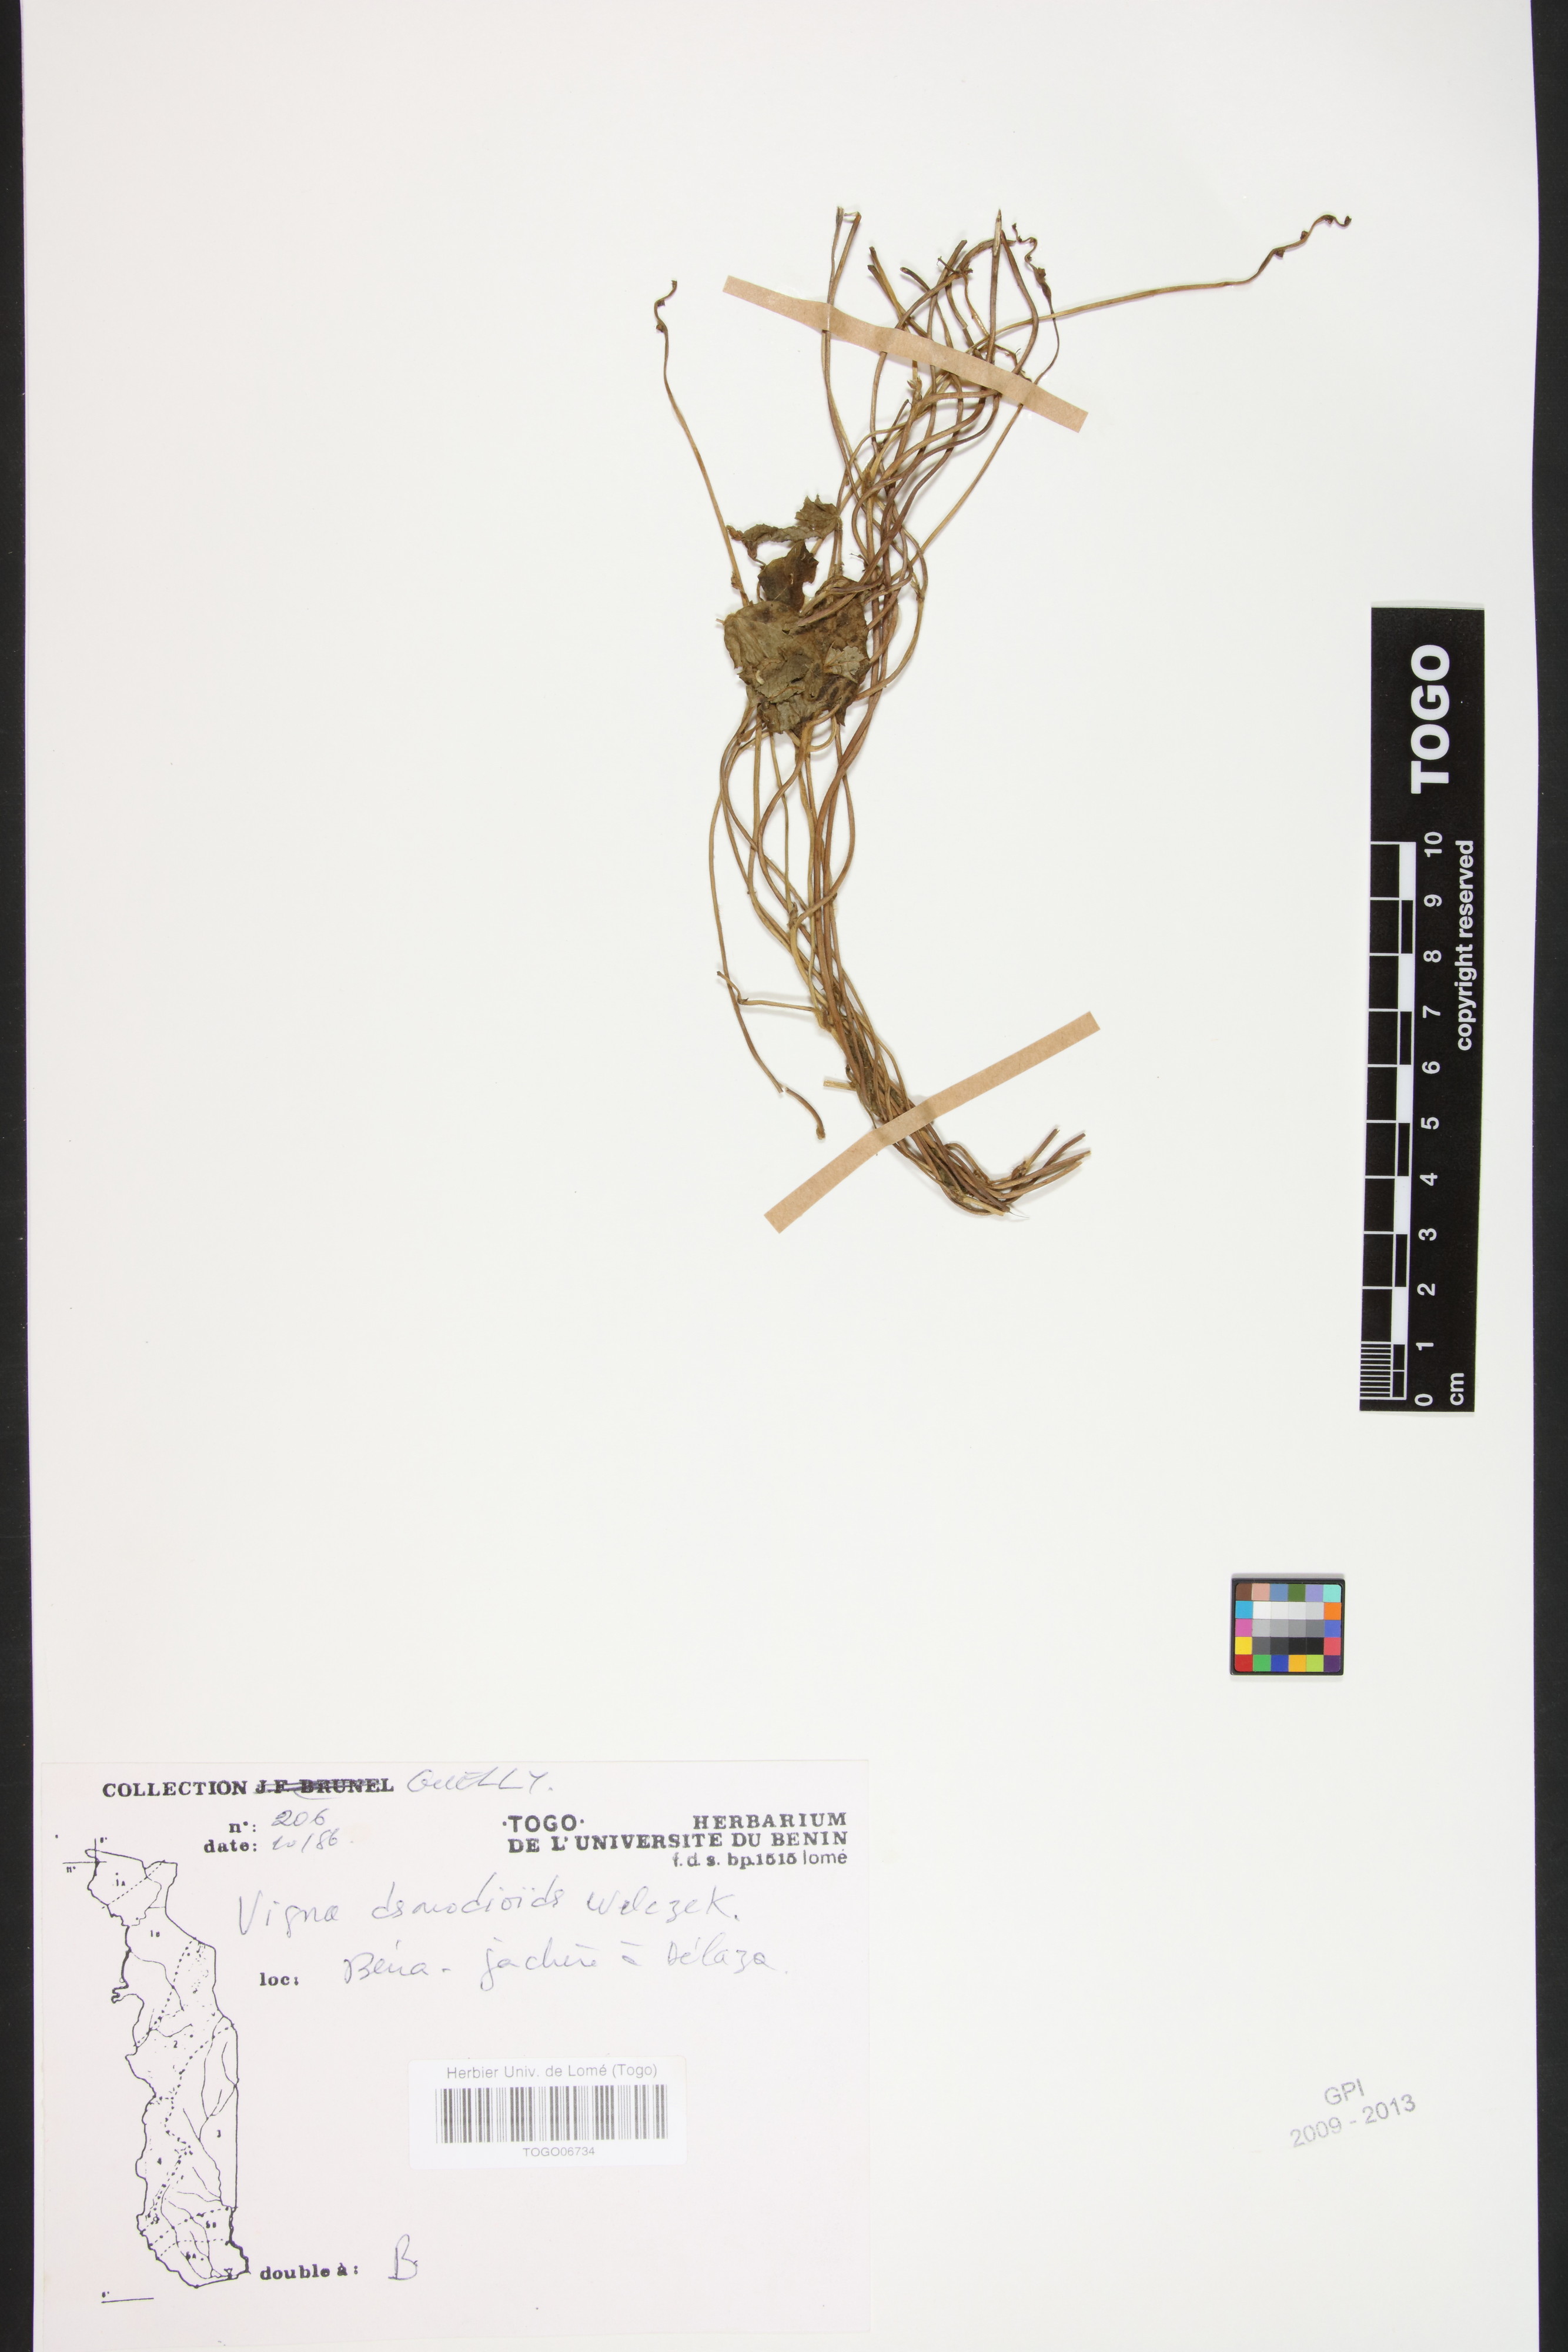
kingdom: Plantae
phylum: Tracheophyta
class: Magnoliopsida
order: Fabales
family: Fabaceae
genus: Vigna
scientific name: Vigna gracilis
